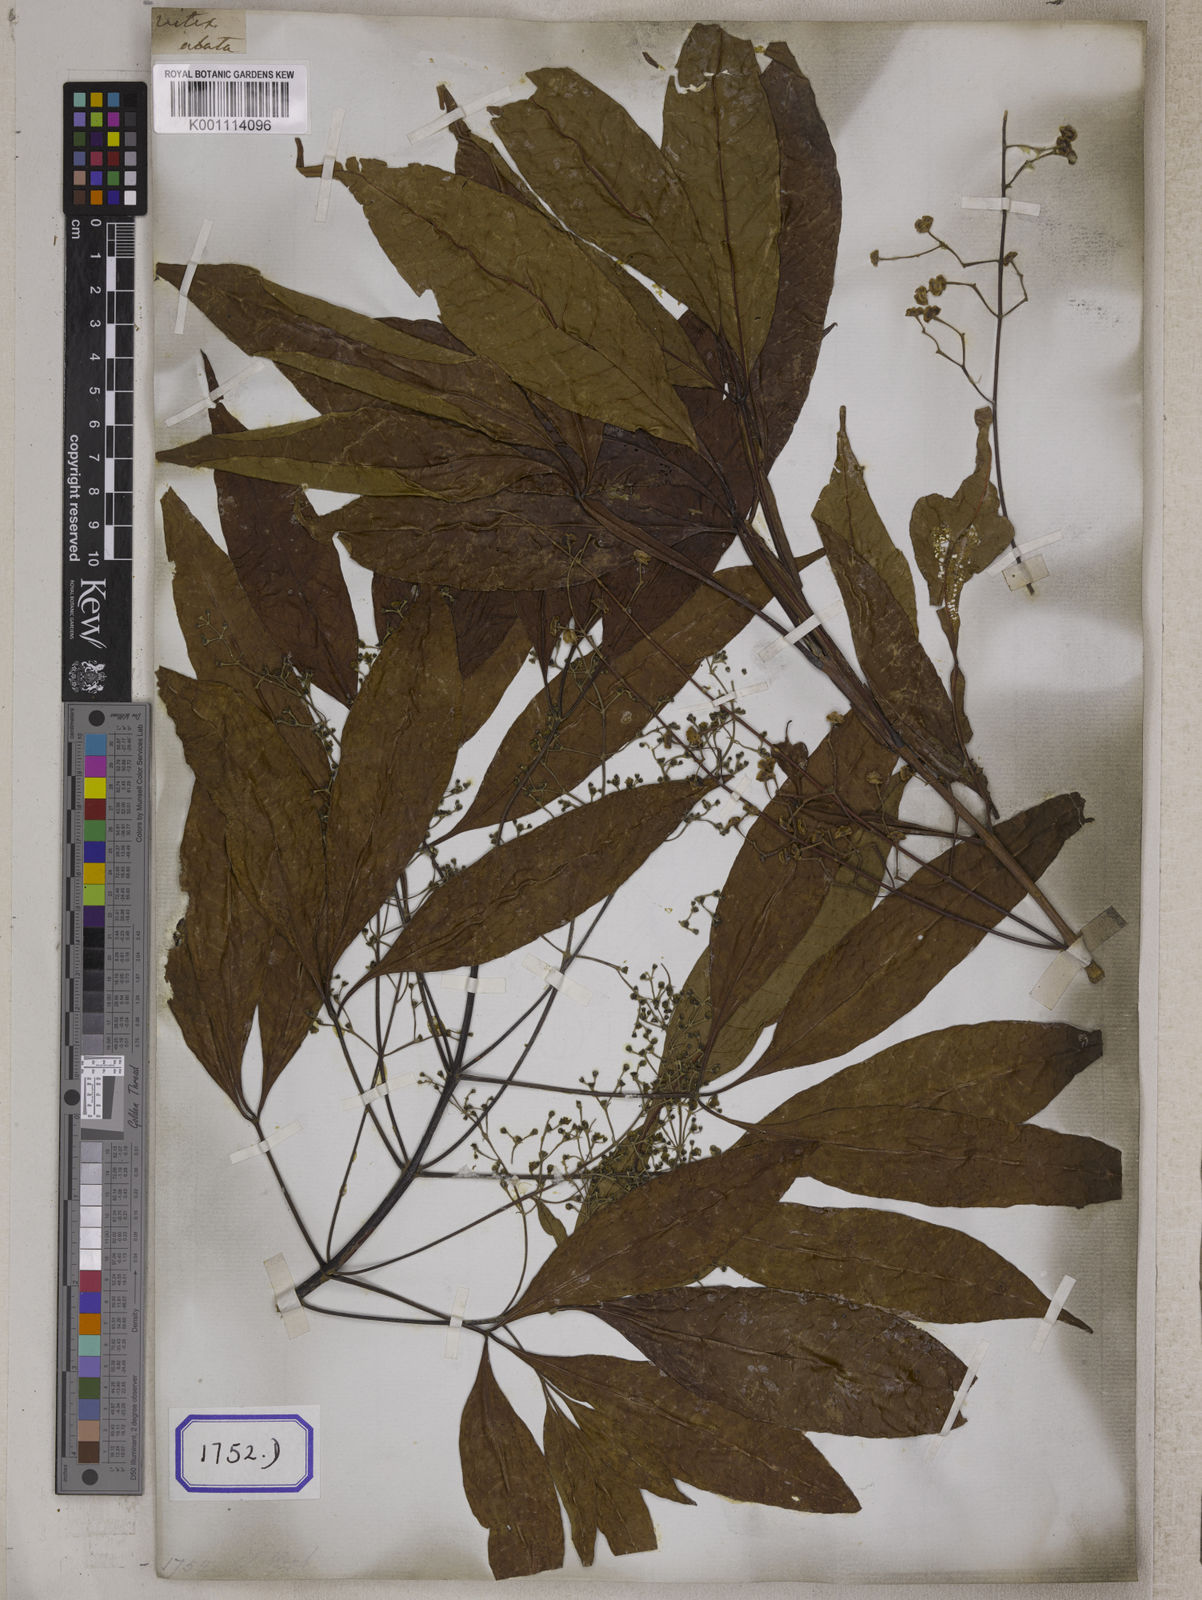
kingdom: Plantae
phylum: Tracheophyta
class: Magnoliopsida
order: Lamiales
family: Lamiaceae
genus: Vitex
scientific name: Vitex peduncularis
